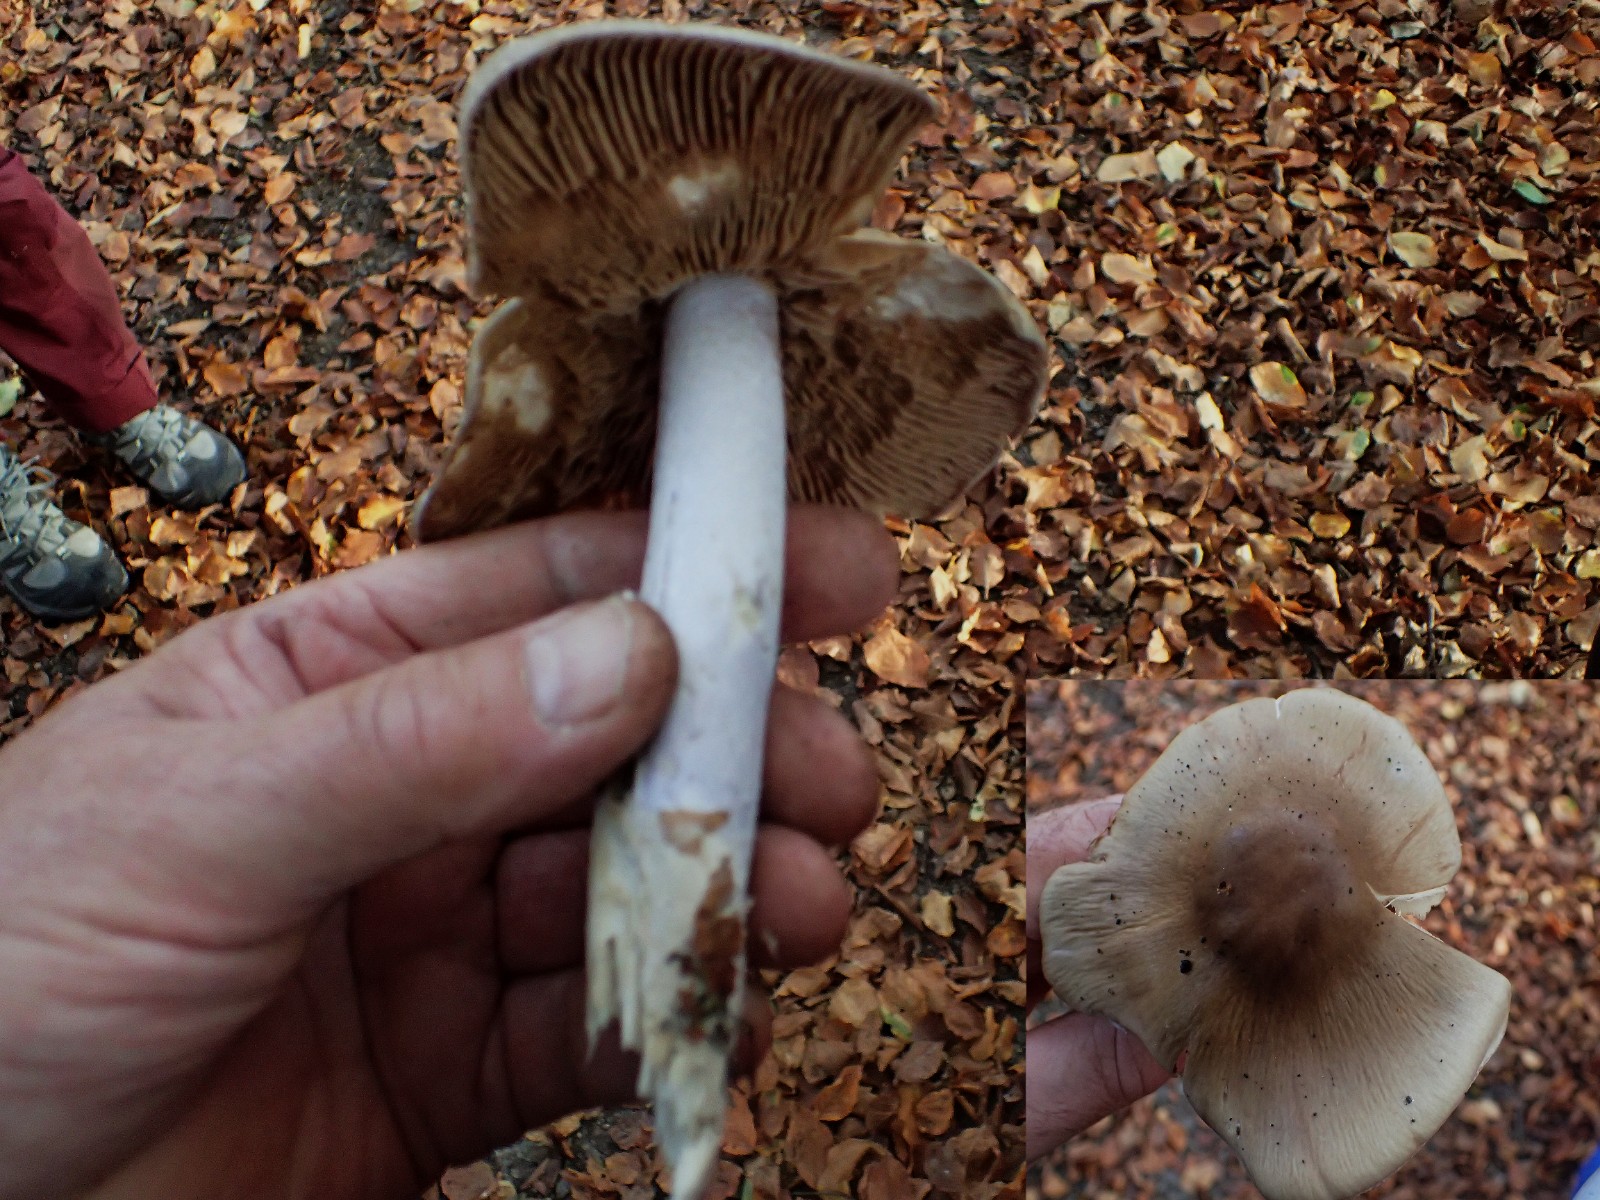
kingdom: Fungi
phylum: Basidiomycota
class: Agaricomycetes
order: Agaricales
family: Cortinariaceae
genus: Cortinarius
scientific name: Cortinarius elatior
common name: høj slørhat
